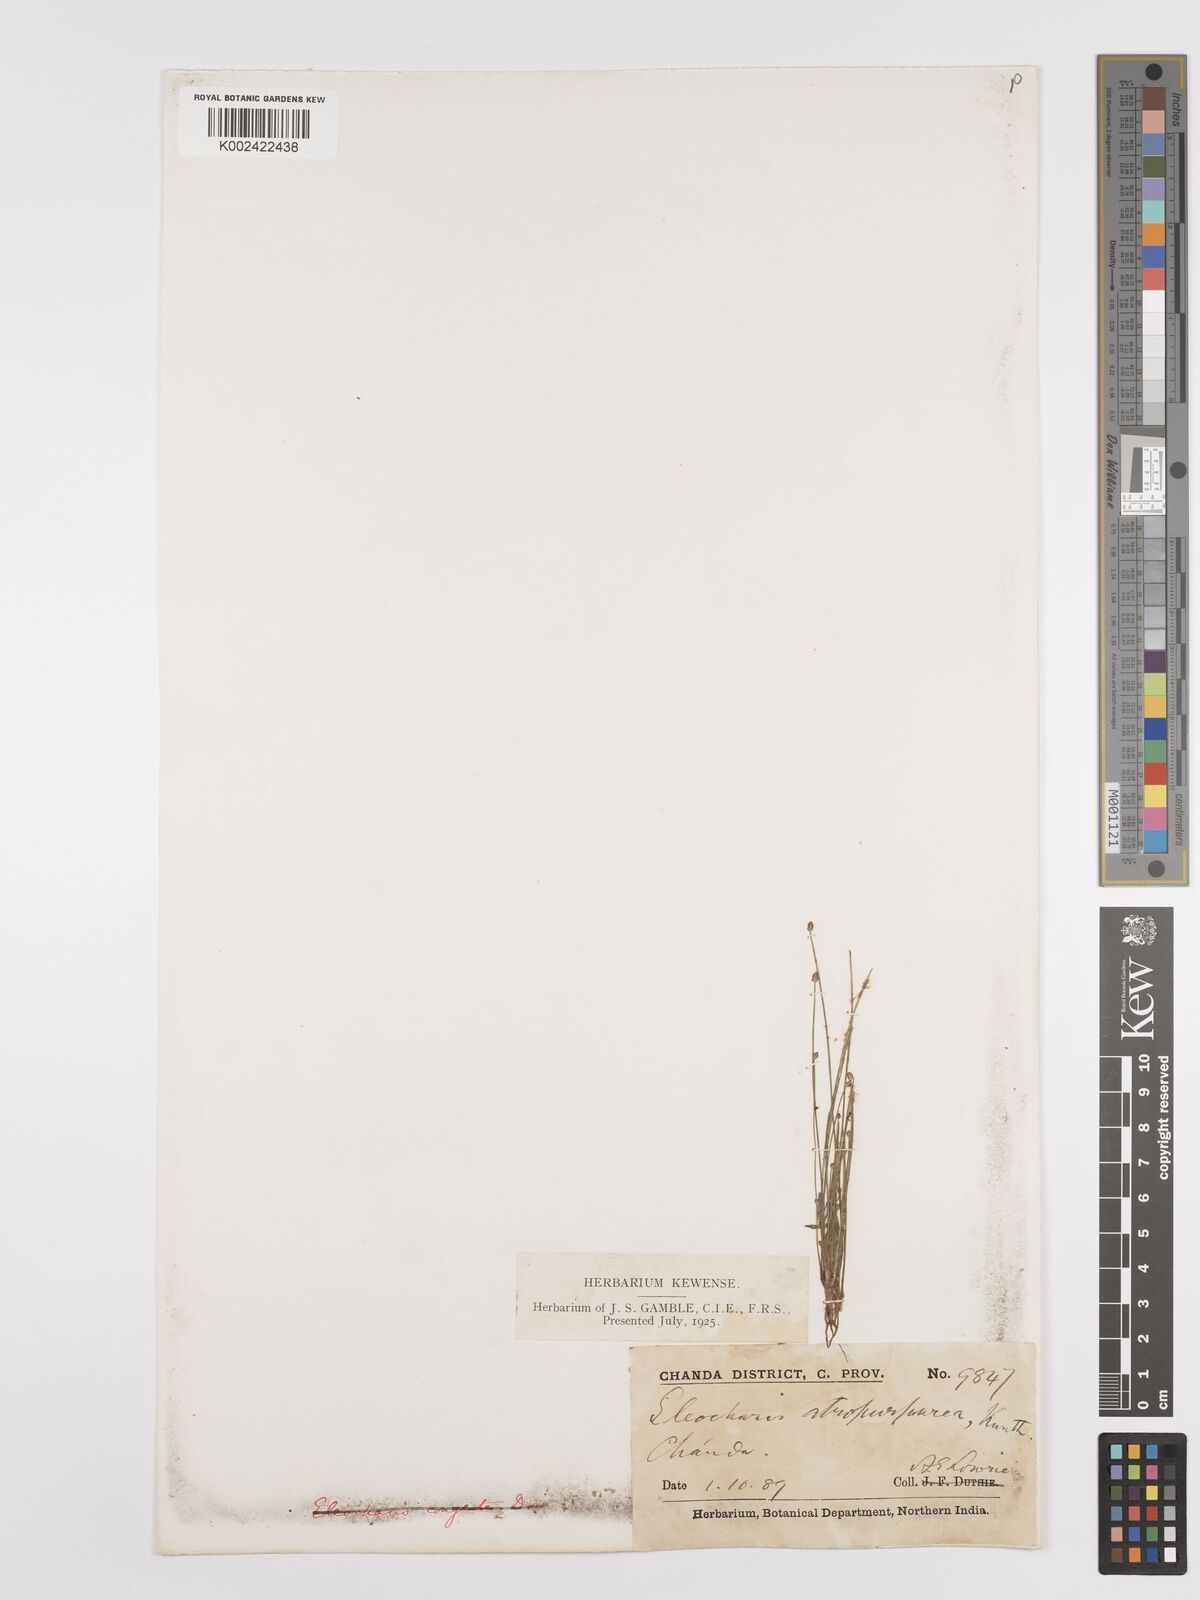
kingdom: Plantae
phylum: Tracheophyta
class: Liliopsida
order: Poales
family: Cyperaceae
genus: Eleocharis
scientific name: Eleocharis atropurpurea
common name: Purple spikerush
